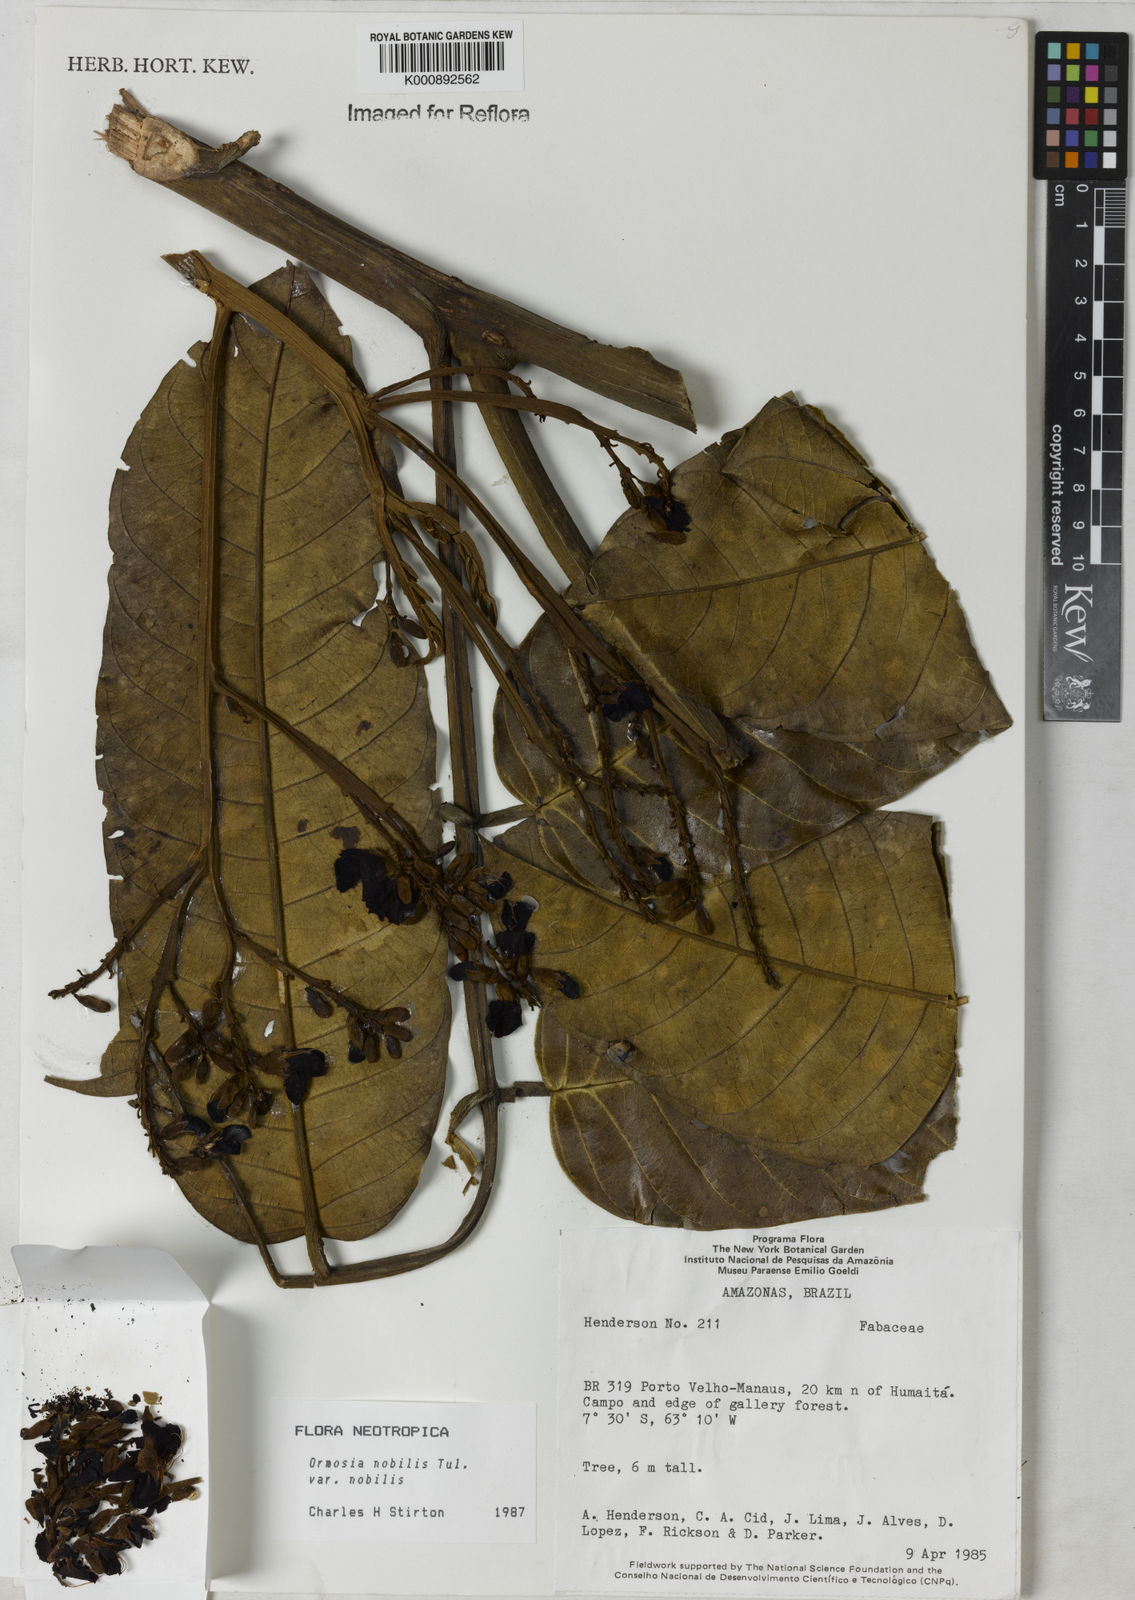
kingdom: Plantae
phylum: Tracheophyta
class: Magnoliopsida
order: Fabales
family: Fabaceae
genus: Ormosia
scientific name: Ormosia nobilis
